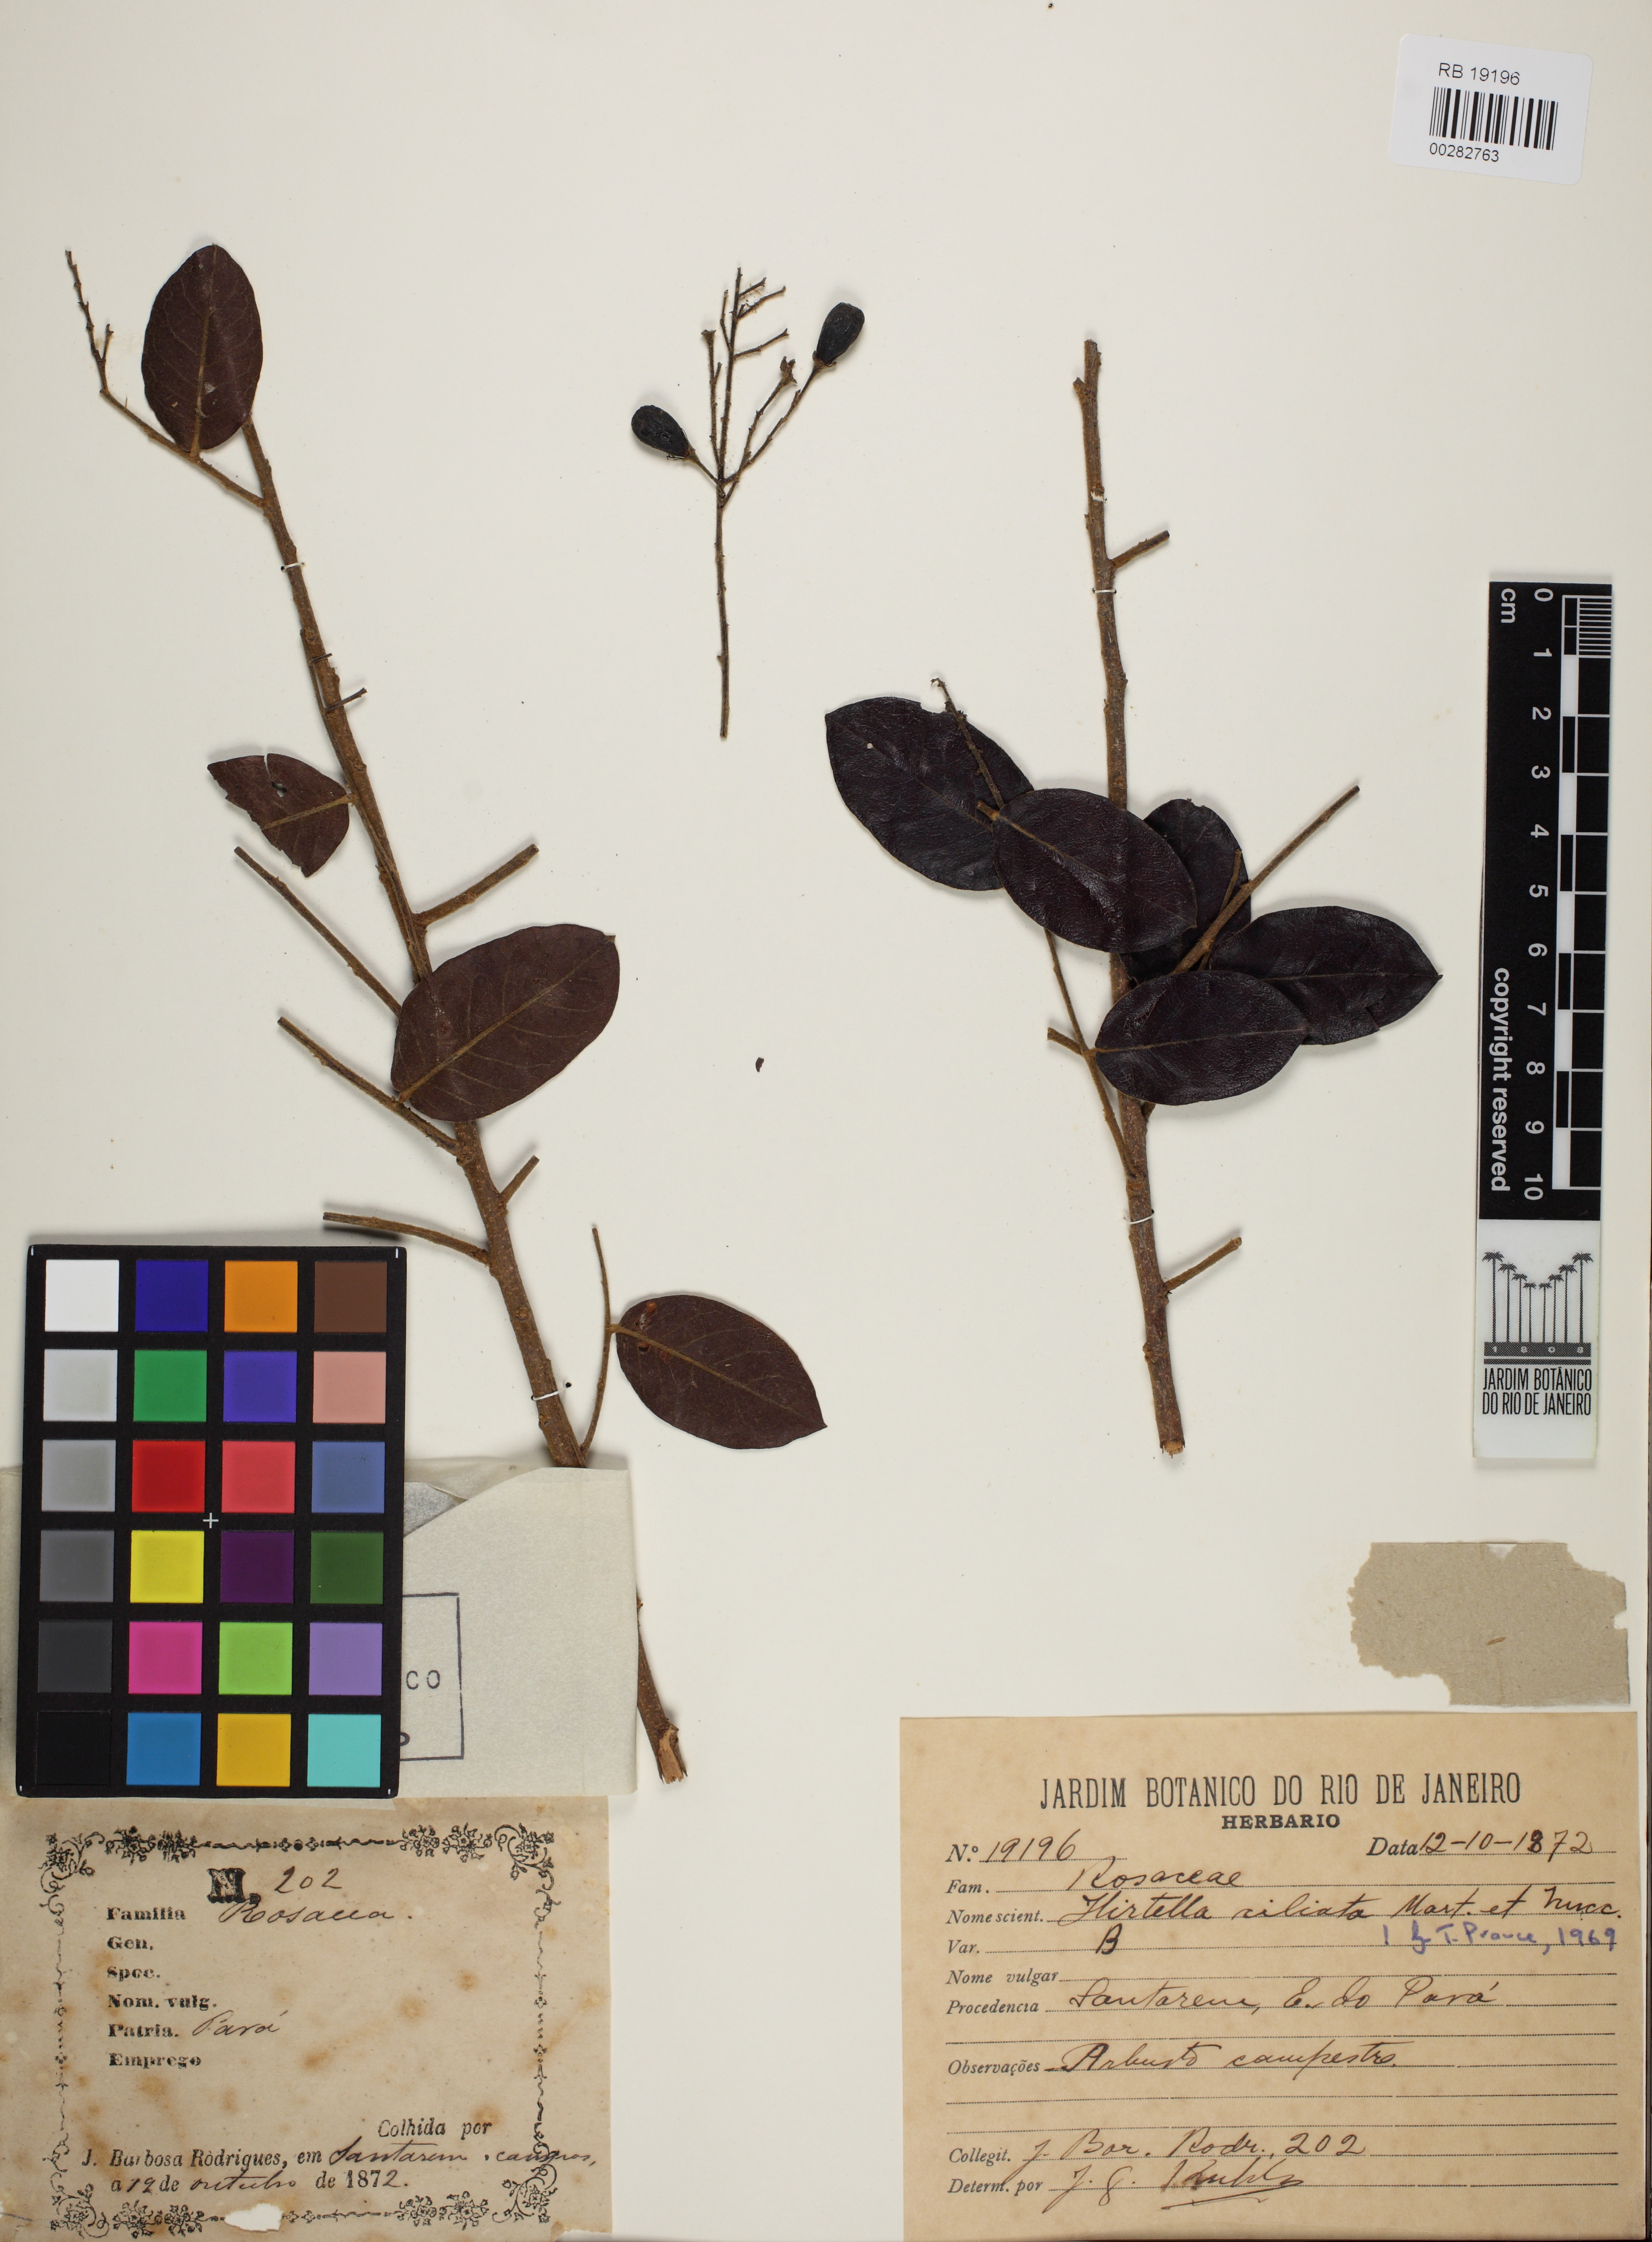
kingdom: Plantae
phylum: Tracheophyta
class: Magnoliopsida
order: Malpighiales
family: Chrysobalanaceae
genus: Hirtella
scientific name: Hirtella ciliata
